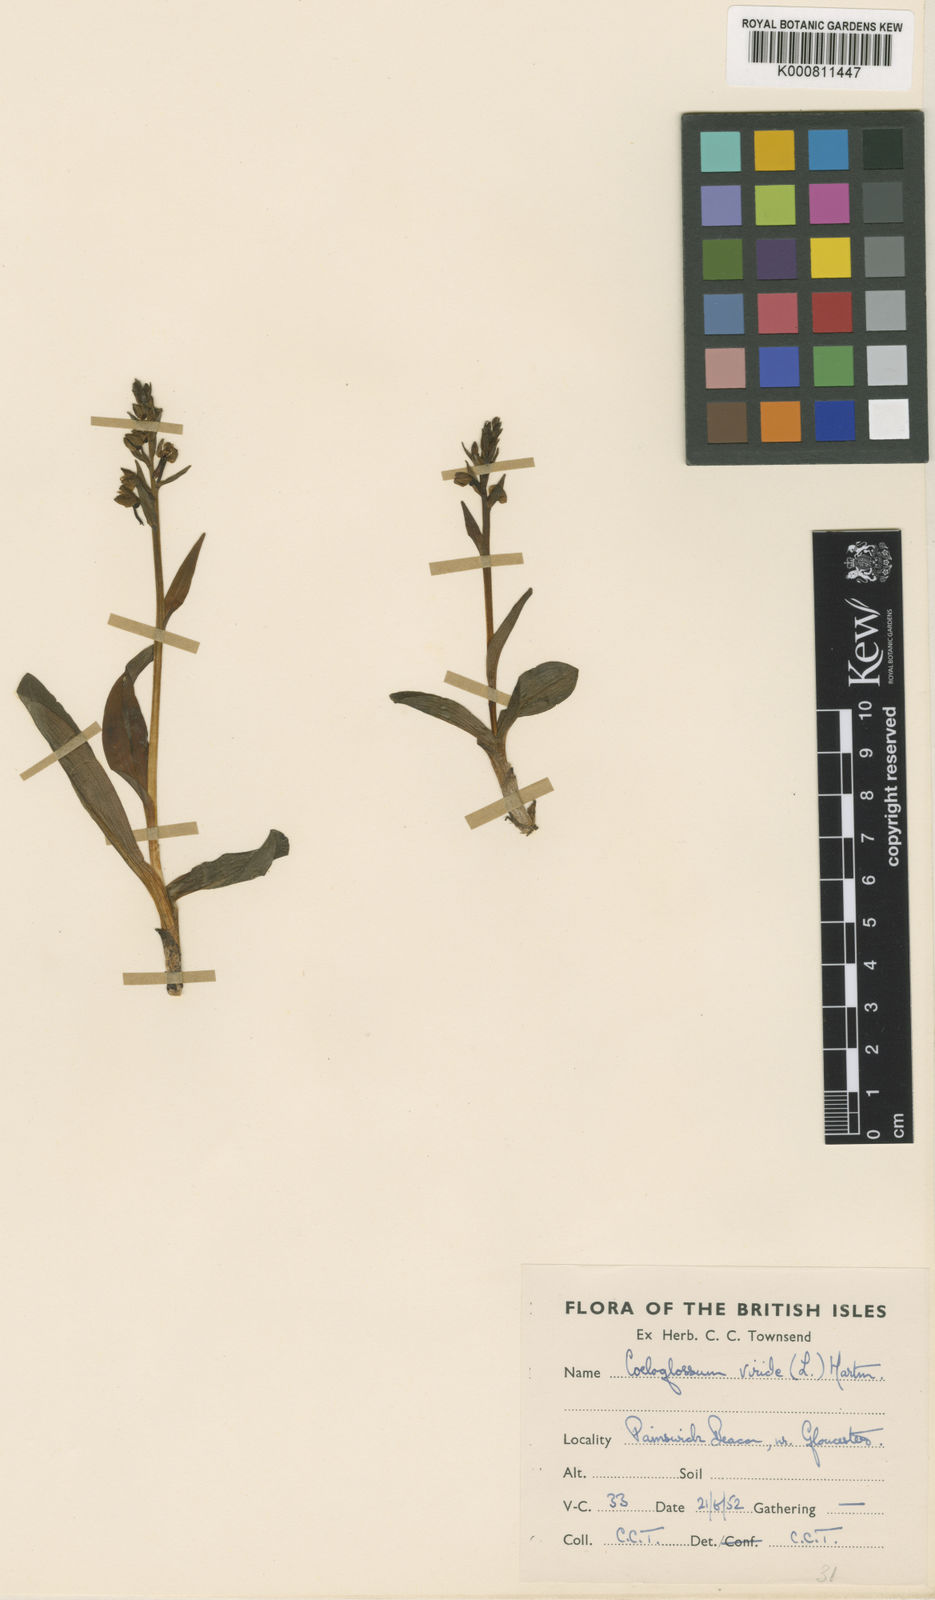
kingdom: Plantae
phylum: Tracheophyta
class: Liliopsida
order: Asparagales
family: Orchidaceae
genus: Dactylorhiza
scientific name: Dactylorhiza viridis
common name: Longbract frog orchid
